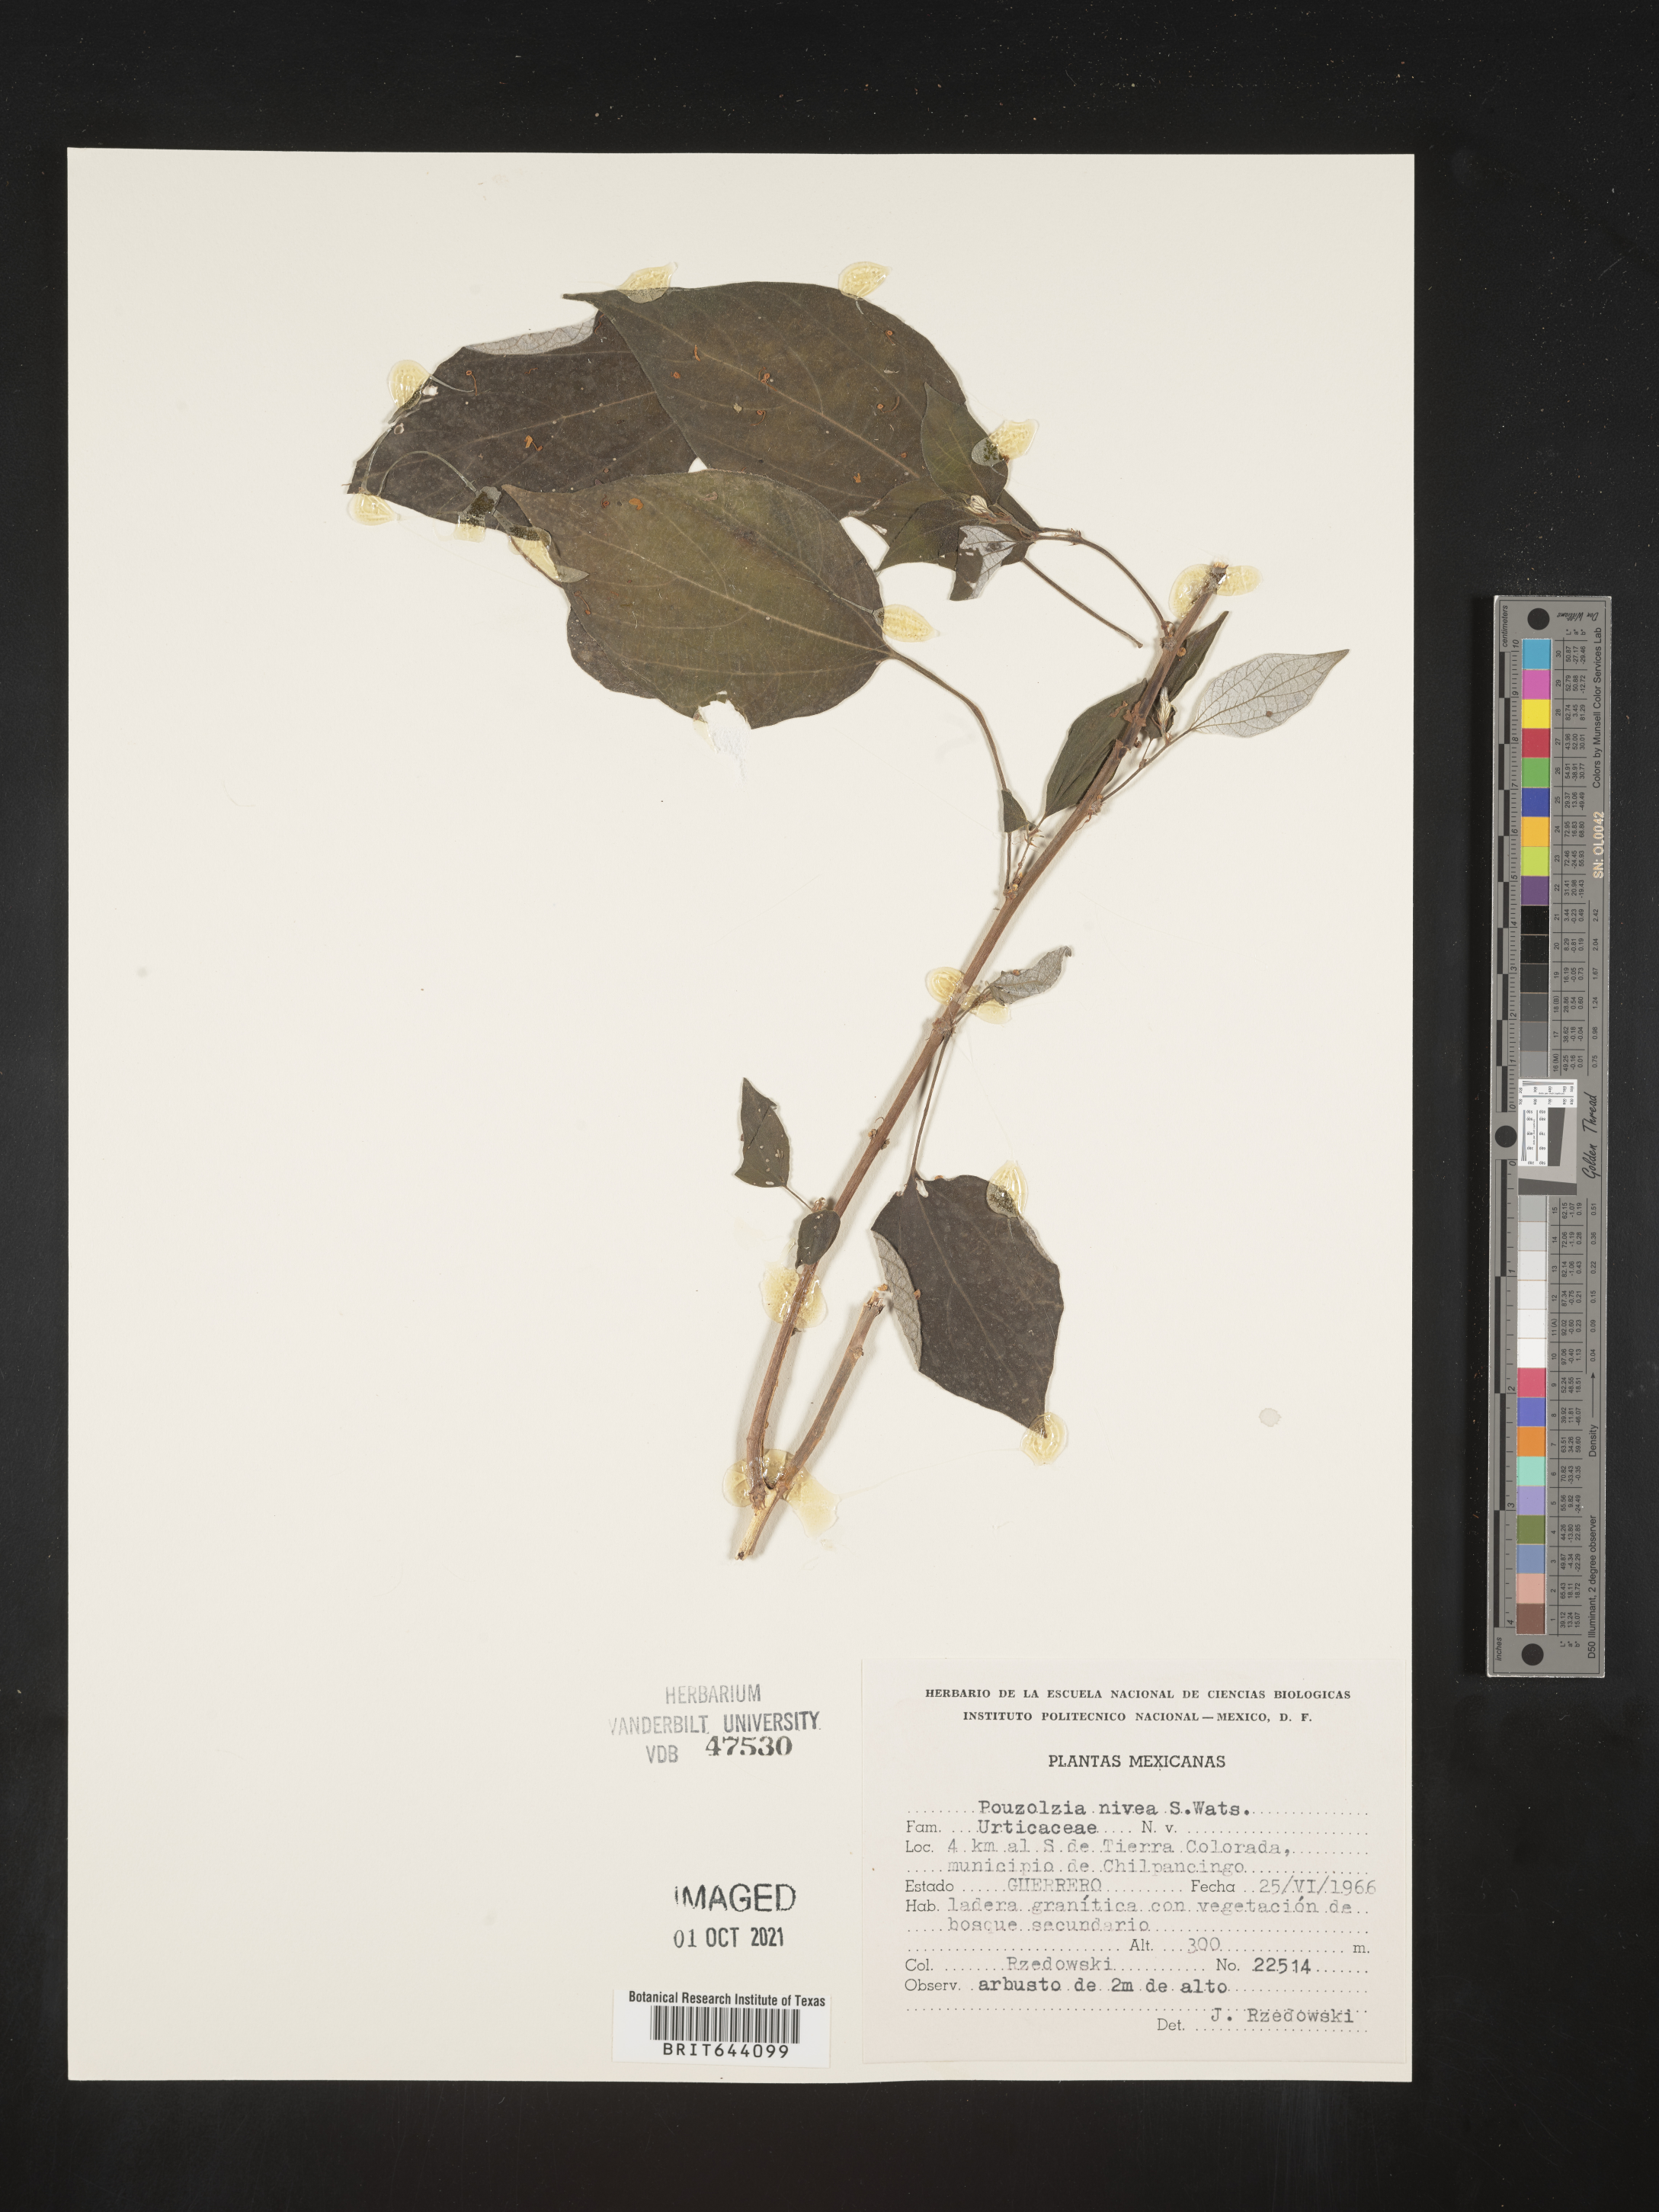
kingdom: Plantae
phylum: Tracheophyta
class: Magnoliopsida
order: Rosales
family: Urticaceae
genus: Pouzolzia
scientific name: Pouzolzia
